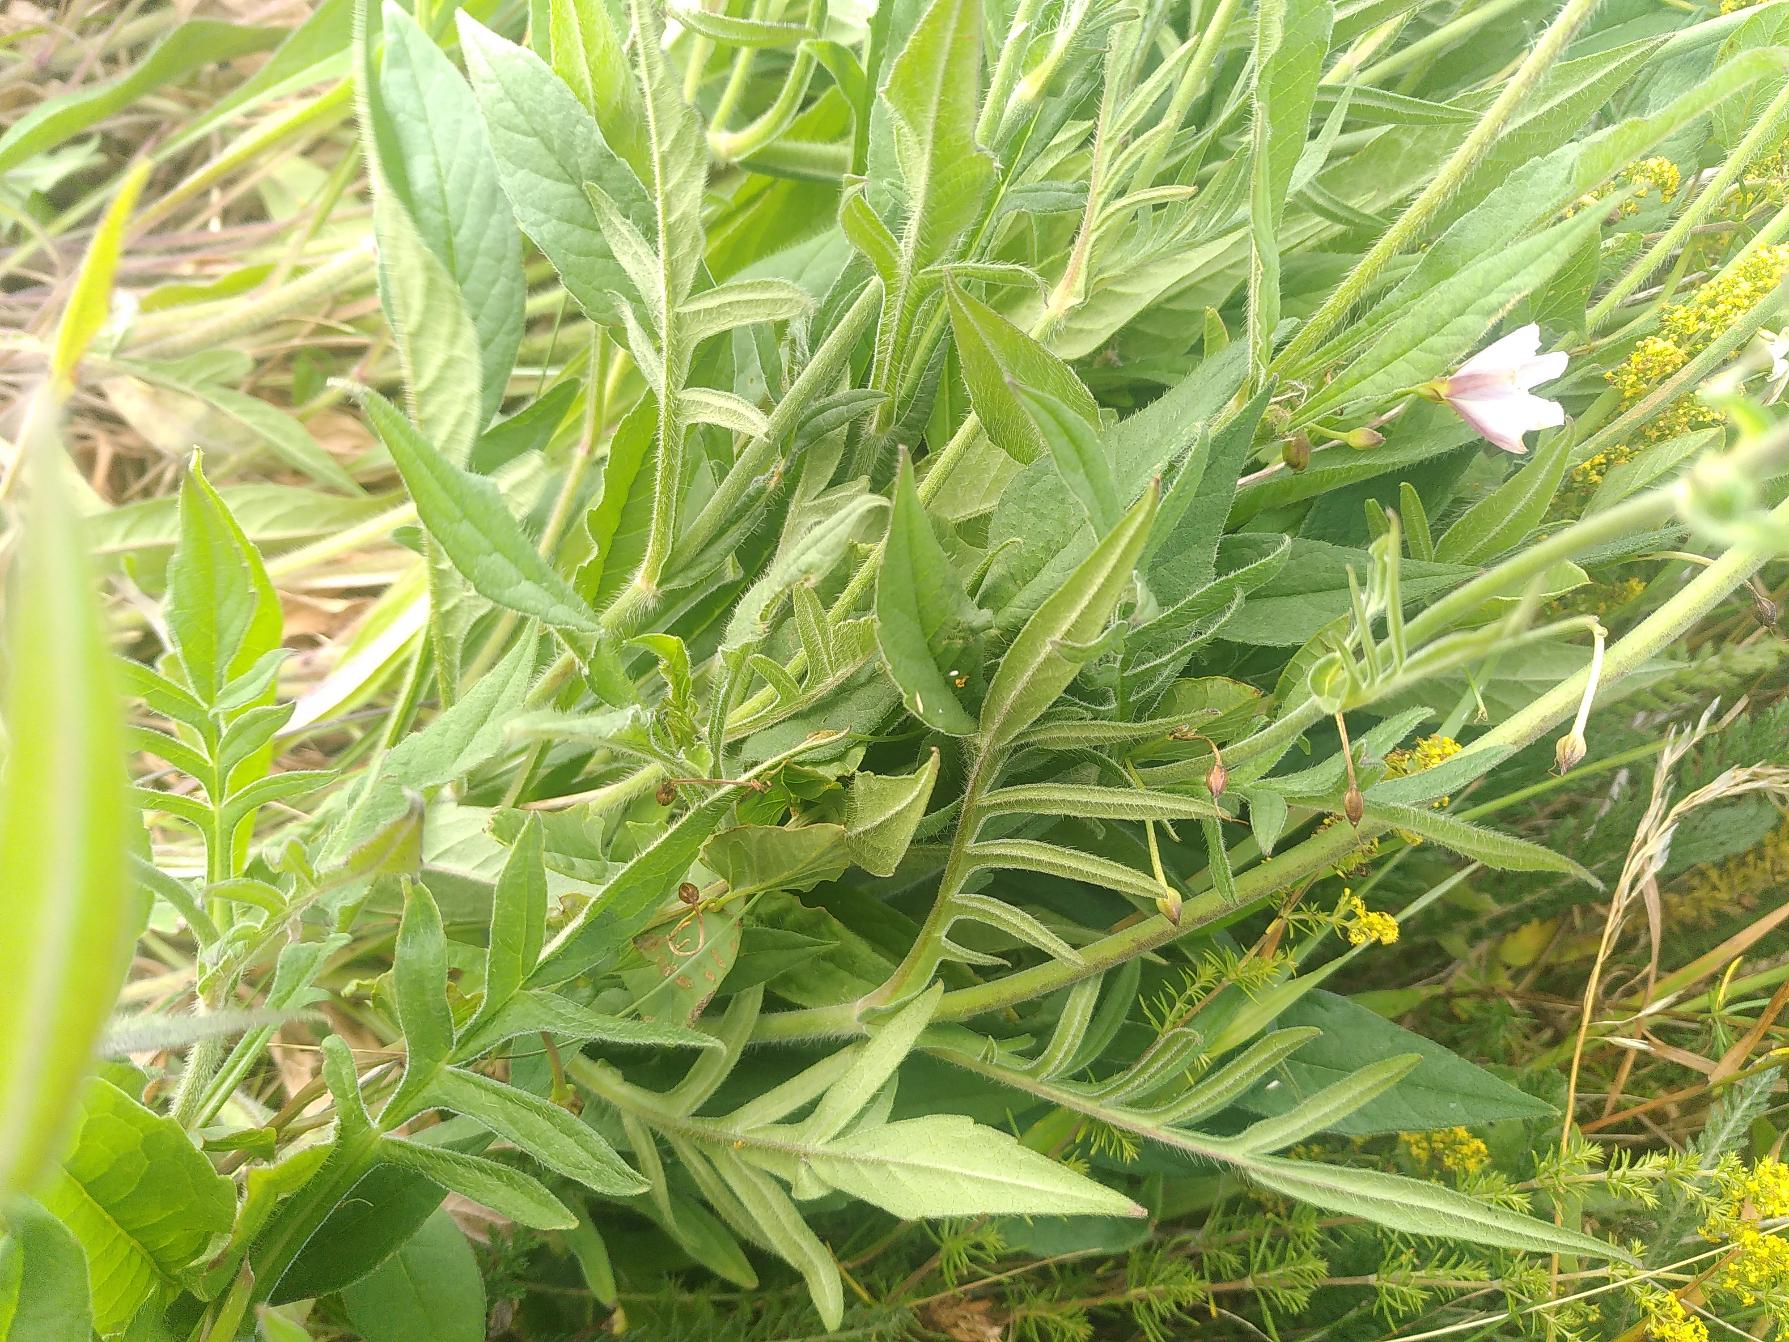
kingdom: Plantae
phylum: Tracheophyta
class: Magnoliopsida
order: Dipsacales
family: Caprifoliaceae
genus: Knautia
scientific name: Knautia arvensis
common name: Blåhat
